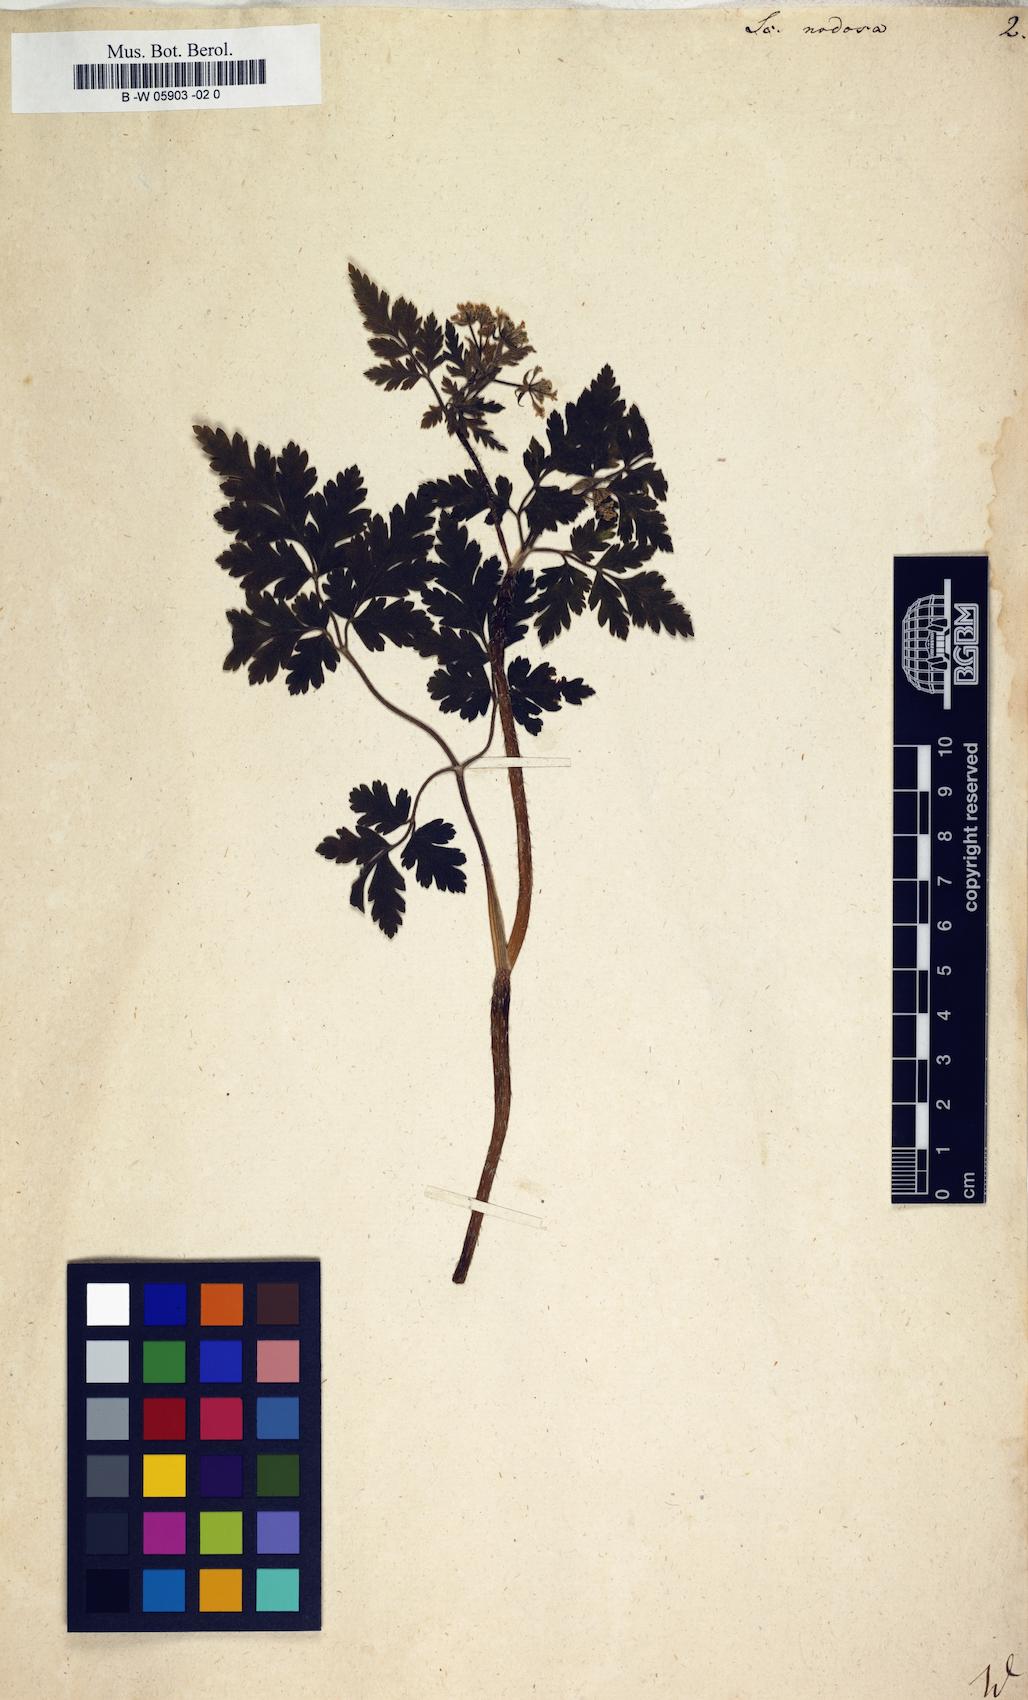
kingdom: Plantae
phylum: Tracheophyta
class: Magnoliopsida
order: Apiales
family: Apiaceae
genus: Chaerophyllum
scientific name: Chaerophyllum nodosum
